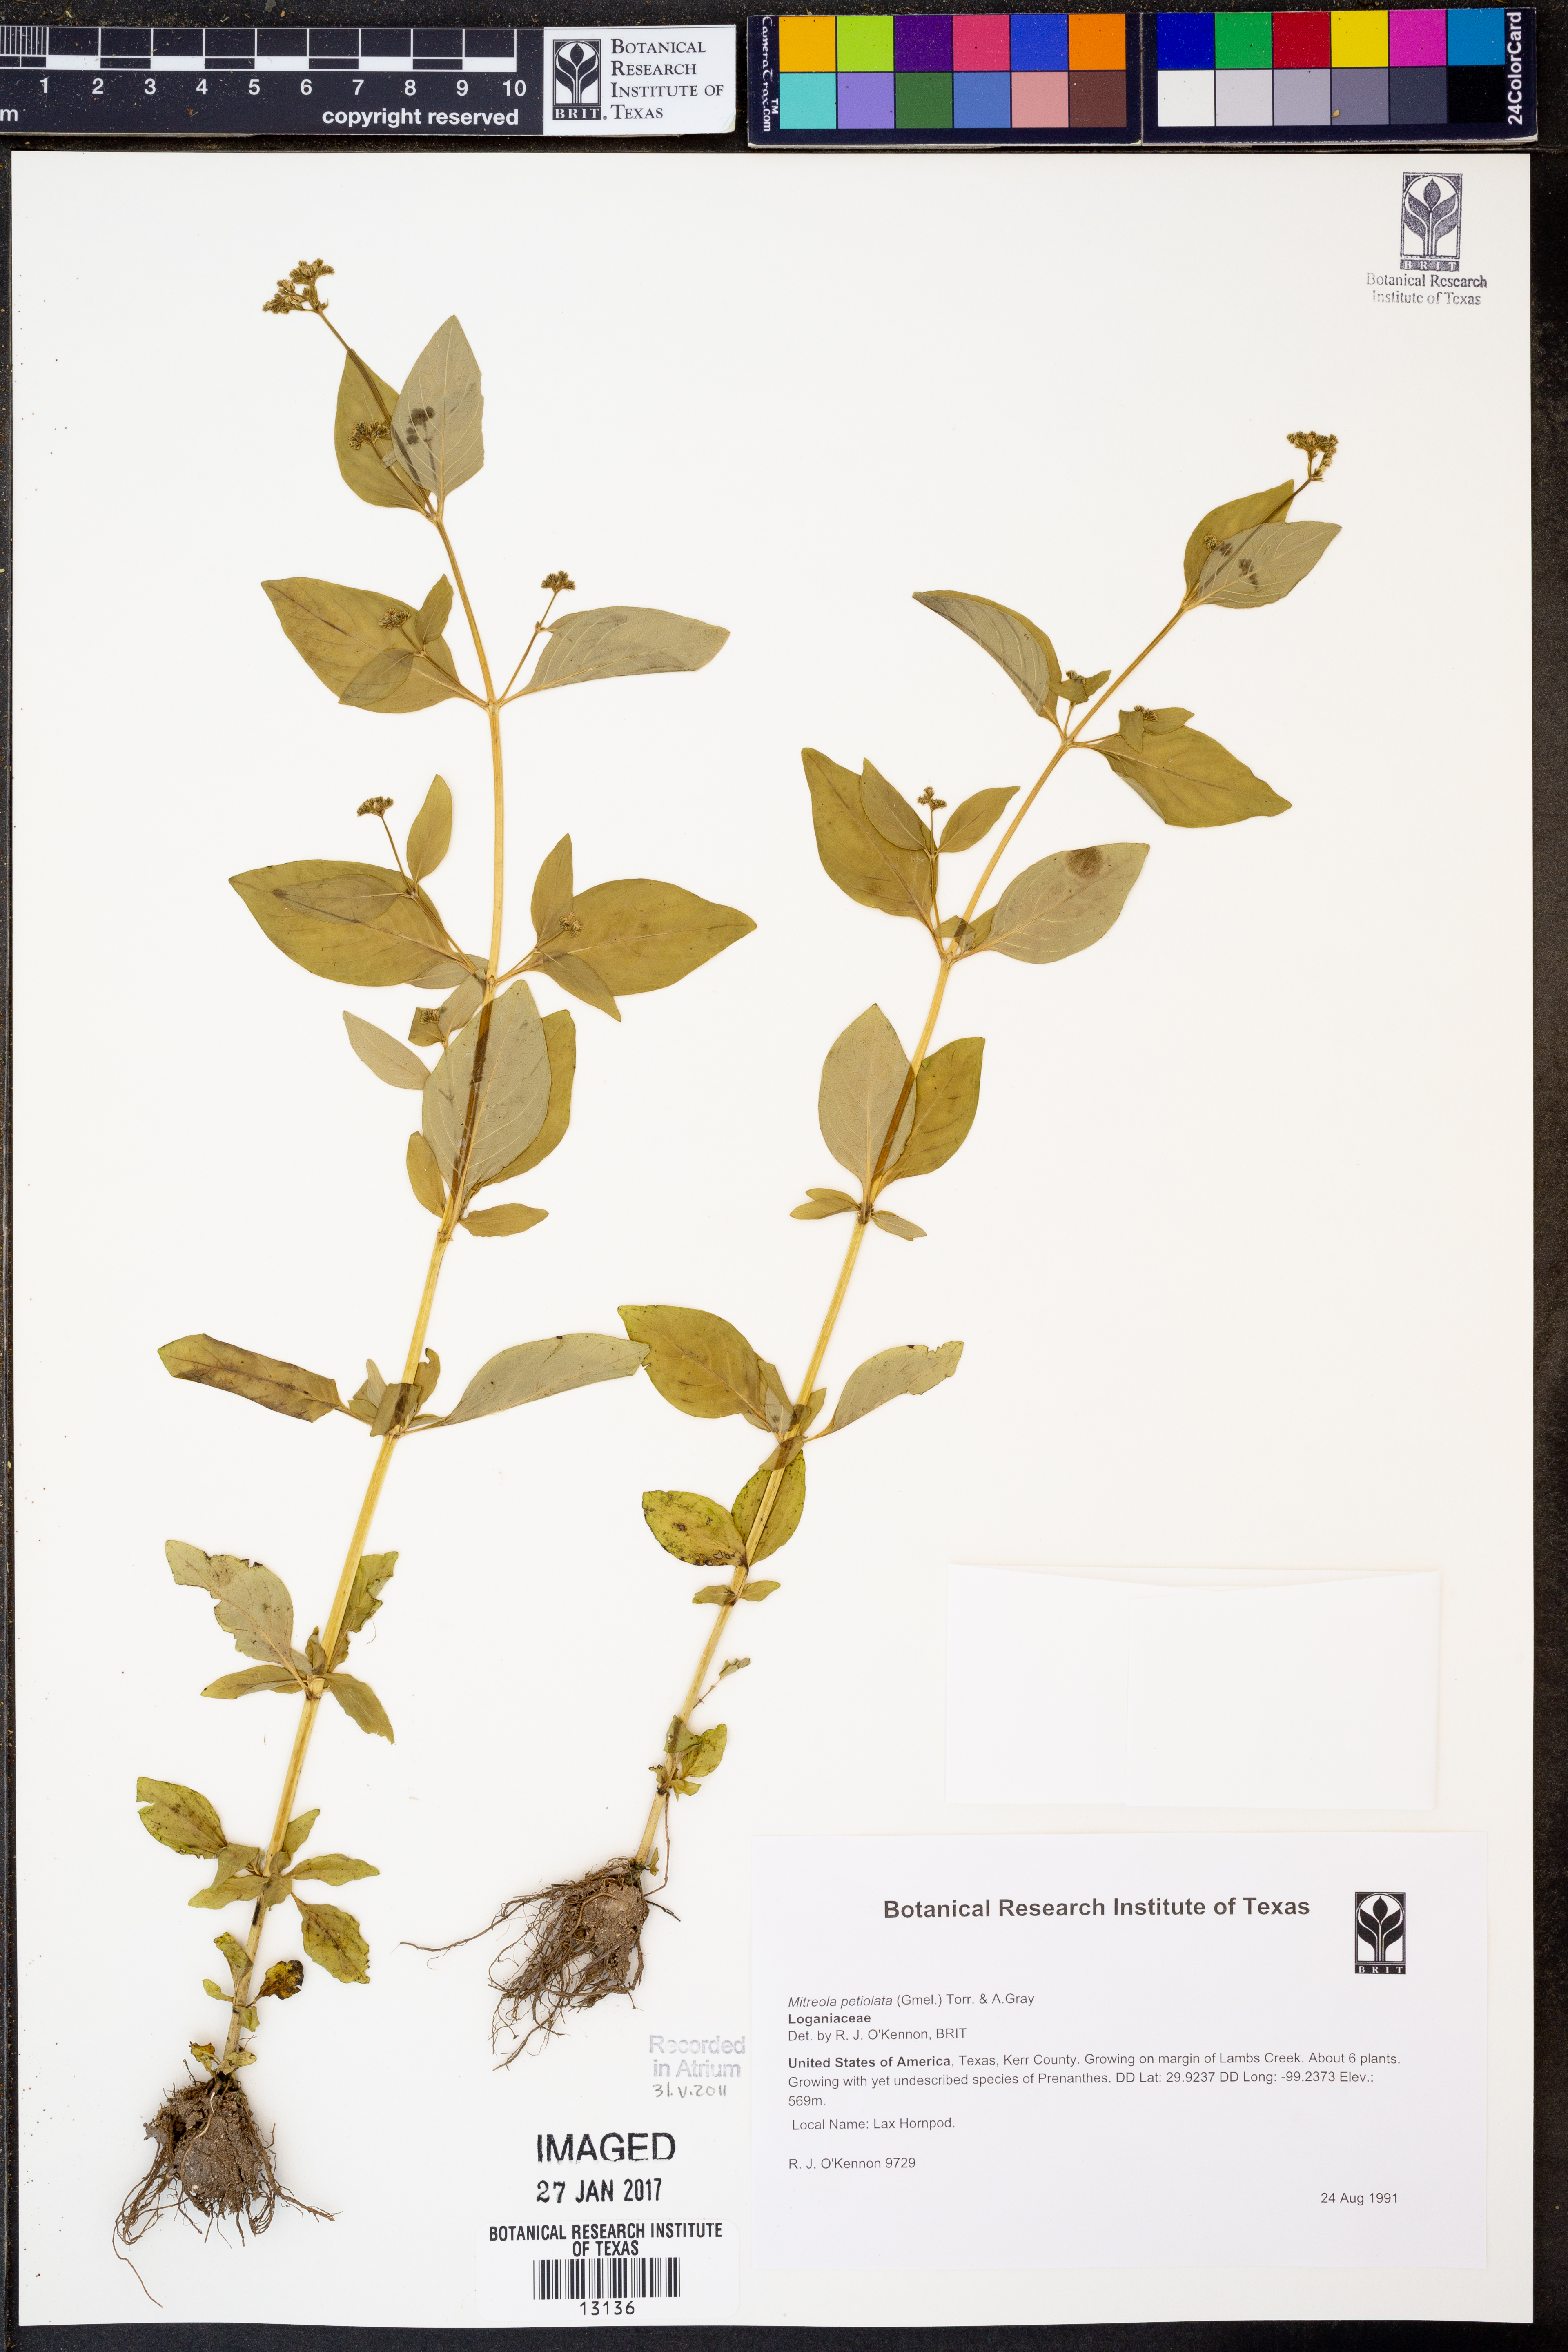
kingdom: Plantae
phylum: Tracheophyta
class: Magnoliopsida
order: Gentianales
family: Loganiaceae
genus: Mitreola
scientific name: Mitreola petiolata
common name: Lax hornpod
